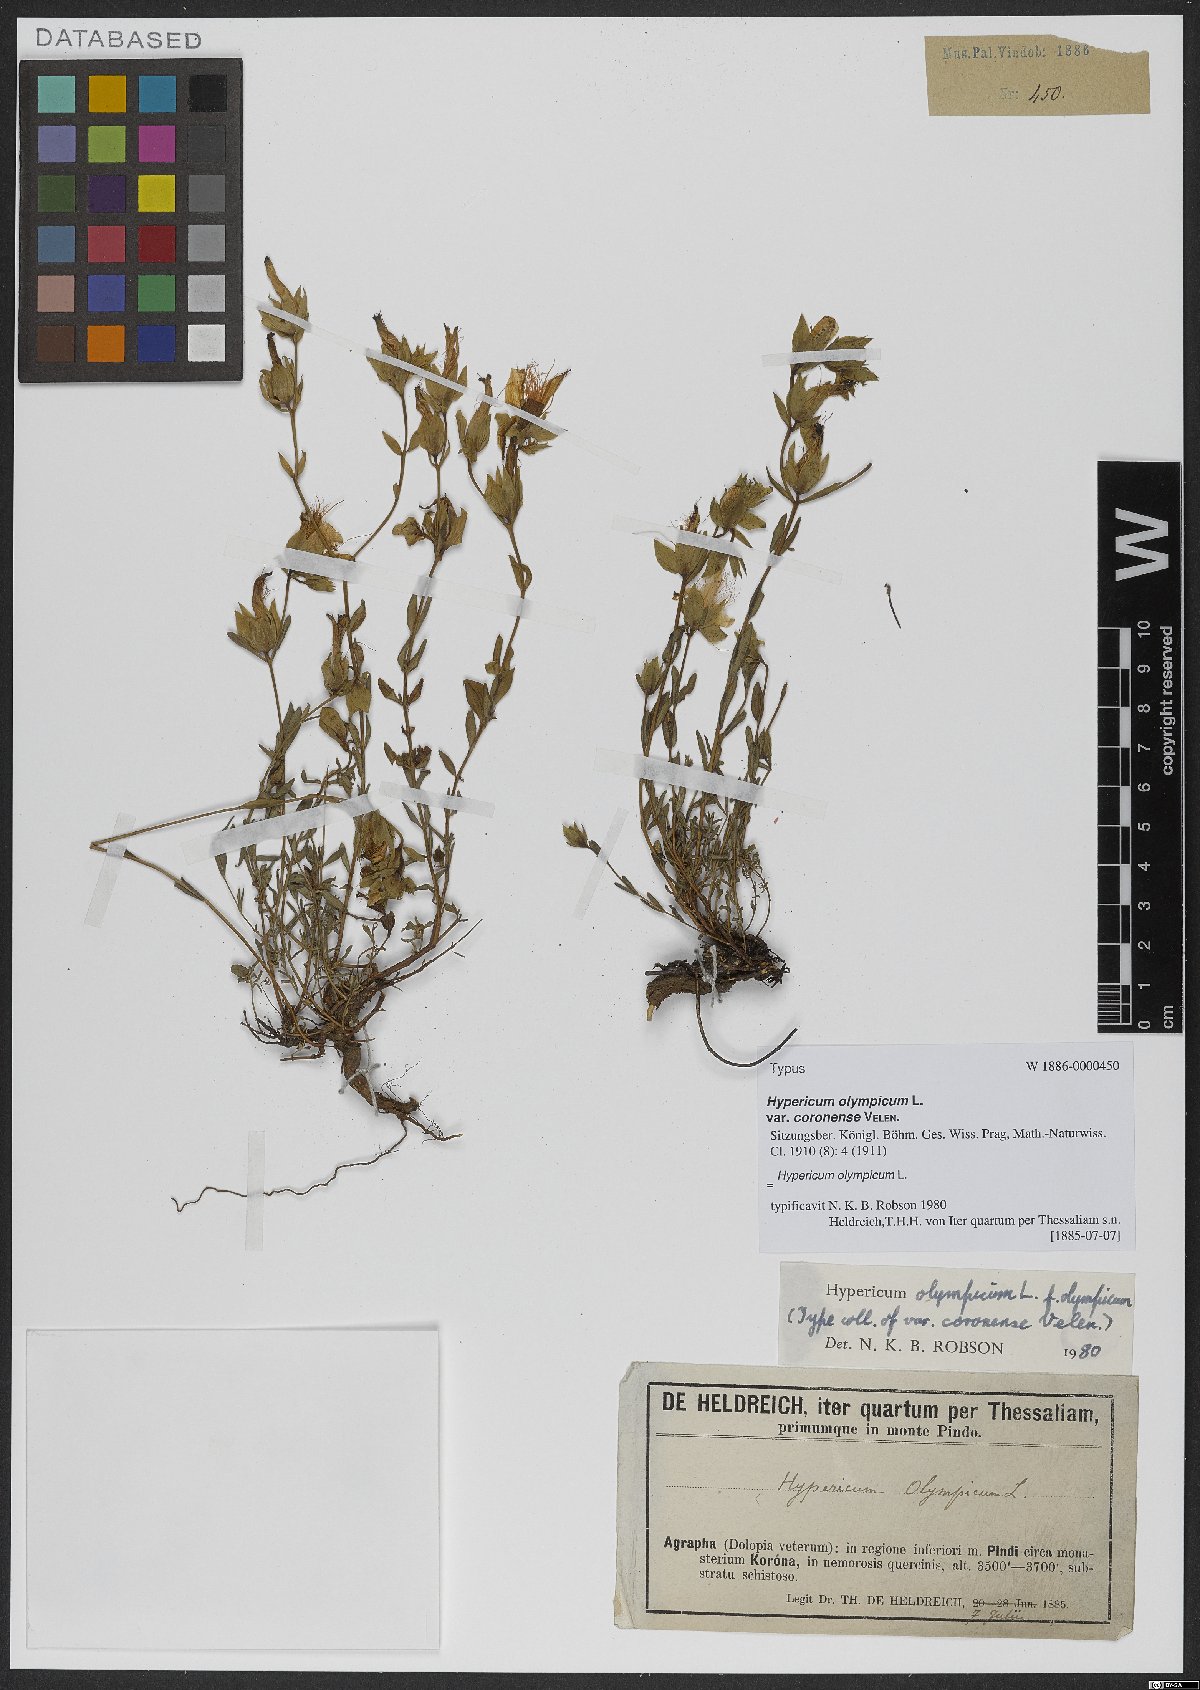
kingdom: Plantae
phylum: Tracheophyta
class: Magnoliopsida
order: Malpighiales
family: Hypericaceae
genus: Hypericum
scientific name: Hypericum olympicum
